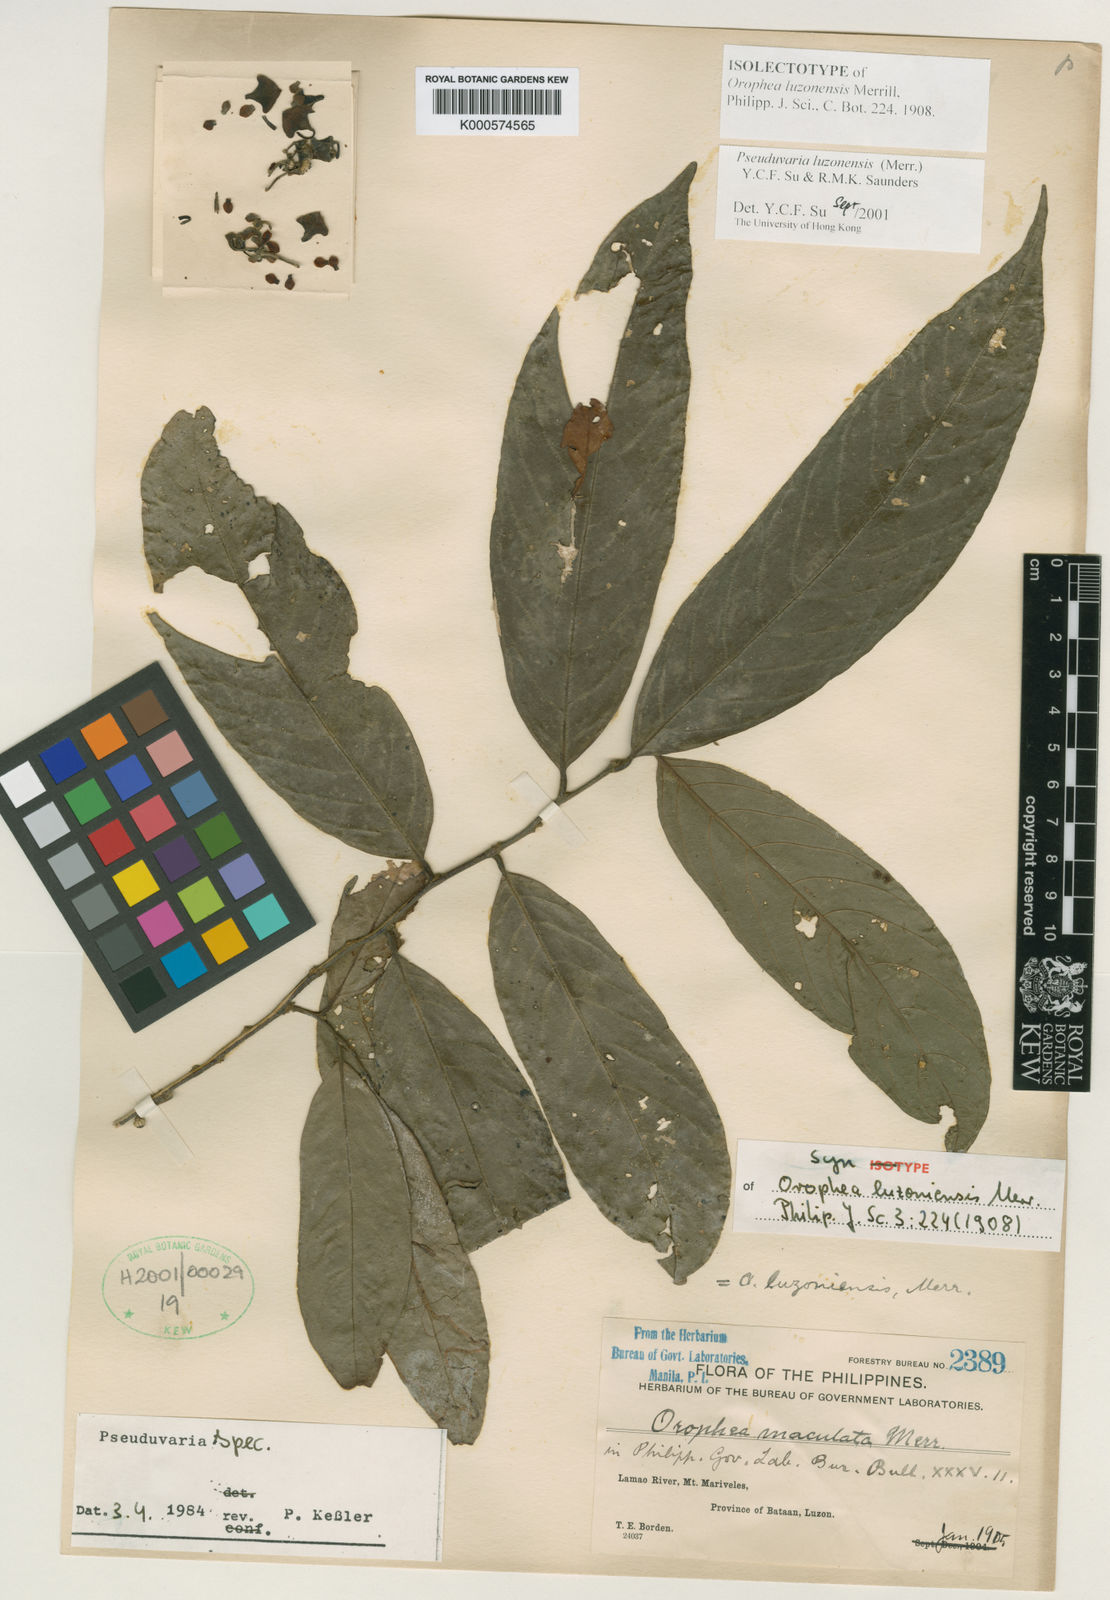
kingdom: Plantae
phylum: Tracheophyta
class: Magnoliopsida
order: Magnoliales
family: Annonaceae
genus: Pseuduvaria
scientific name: Pseuduvaria luzoniensis
